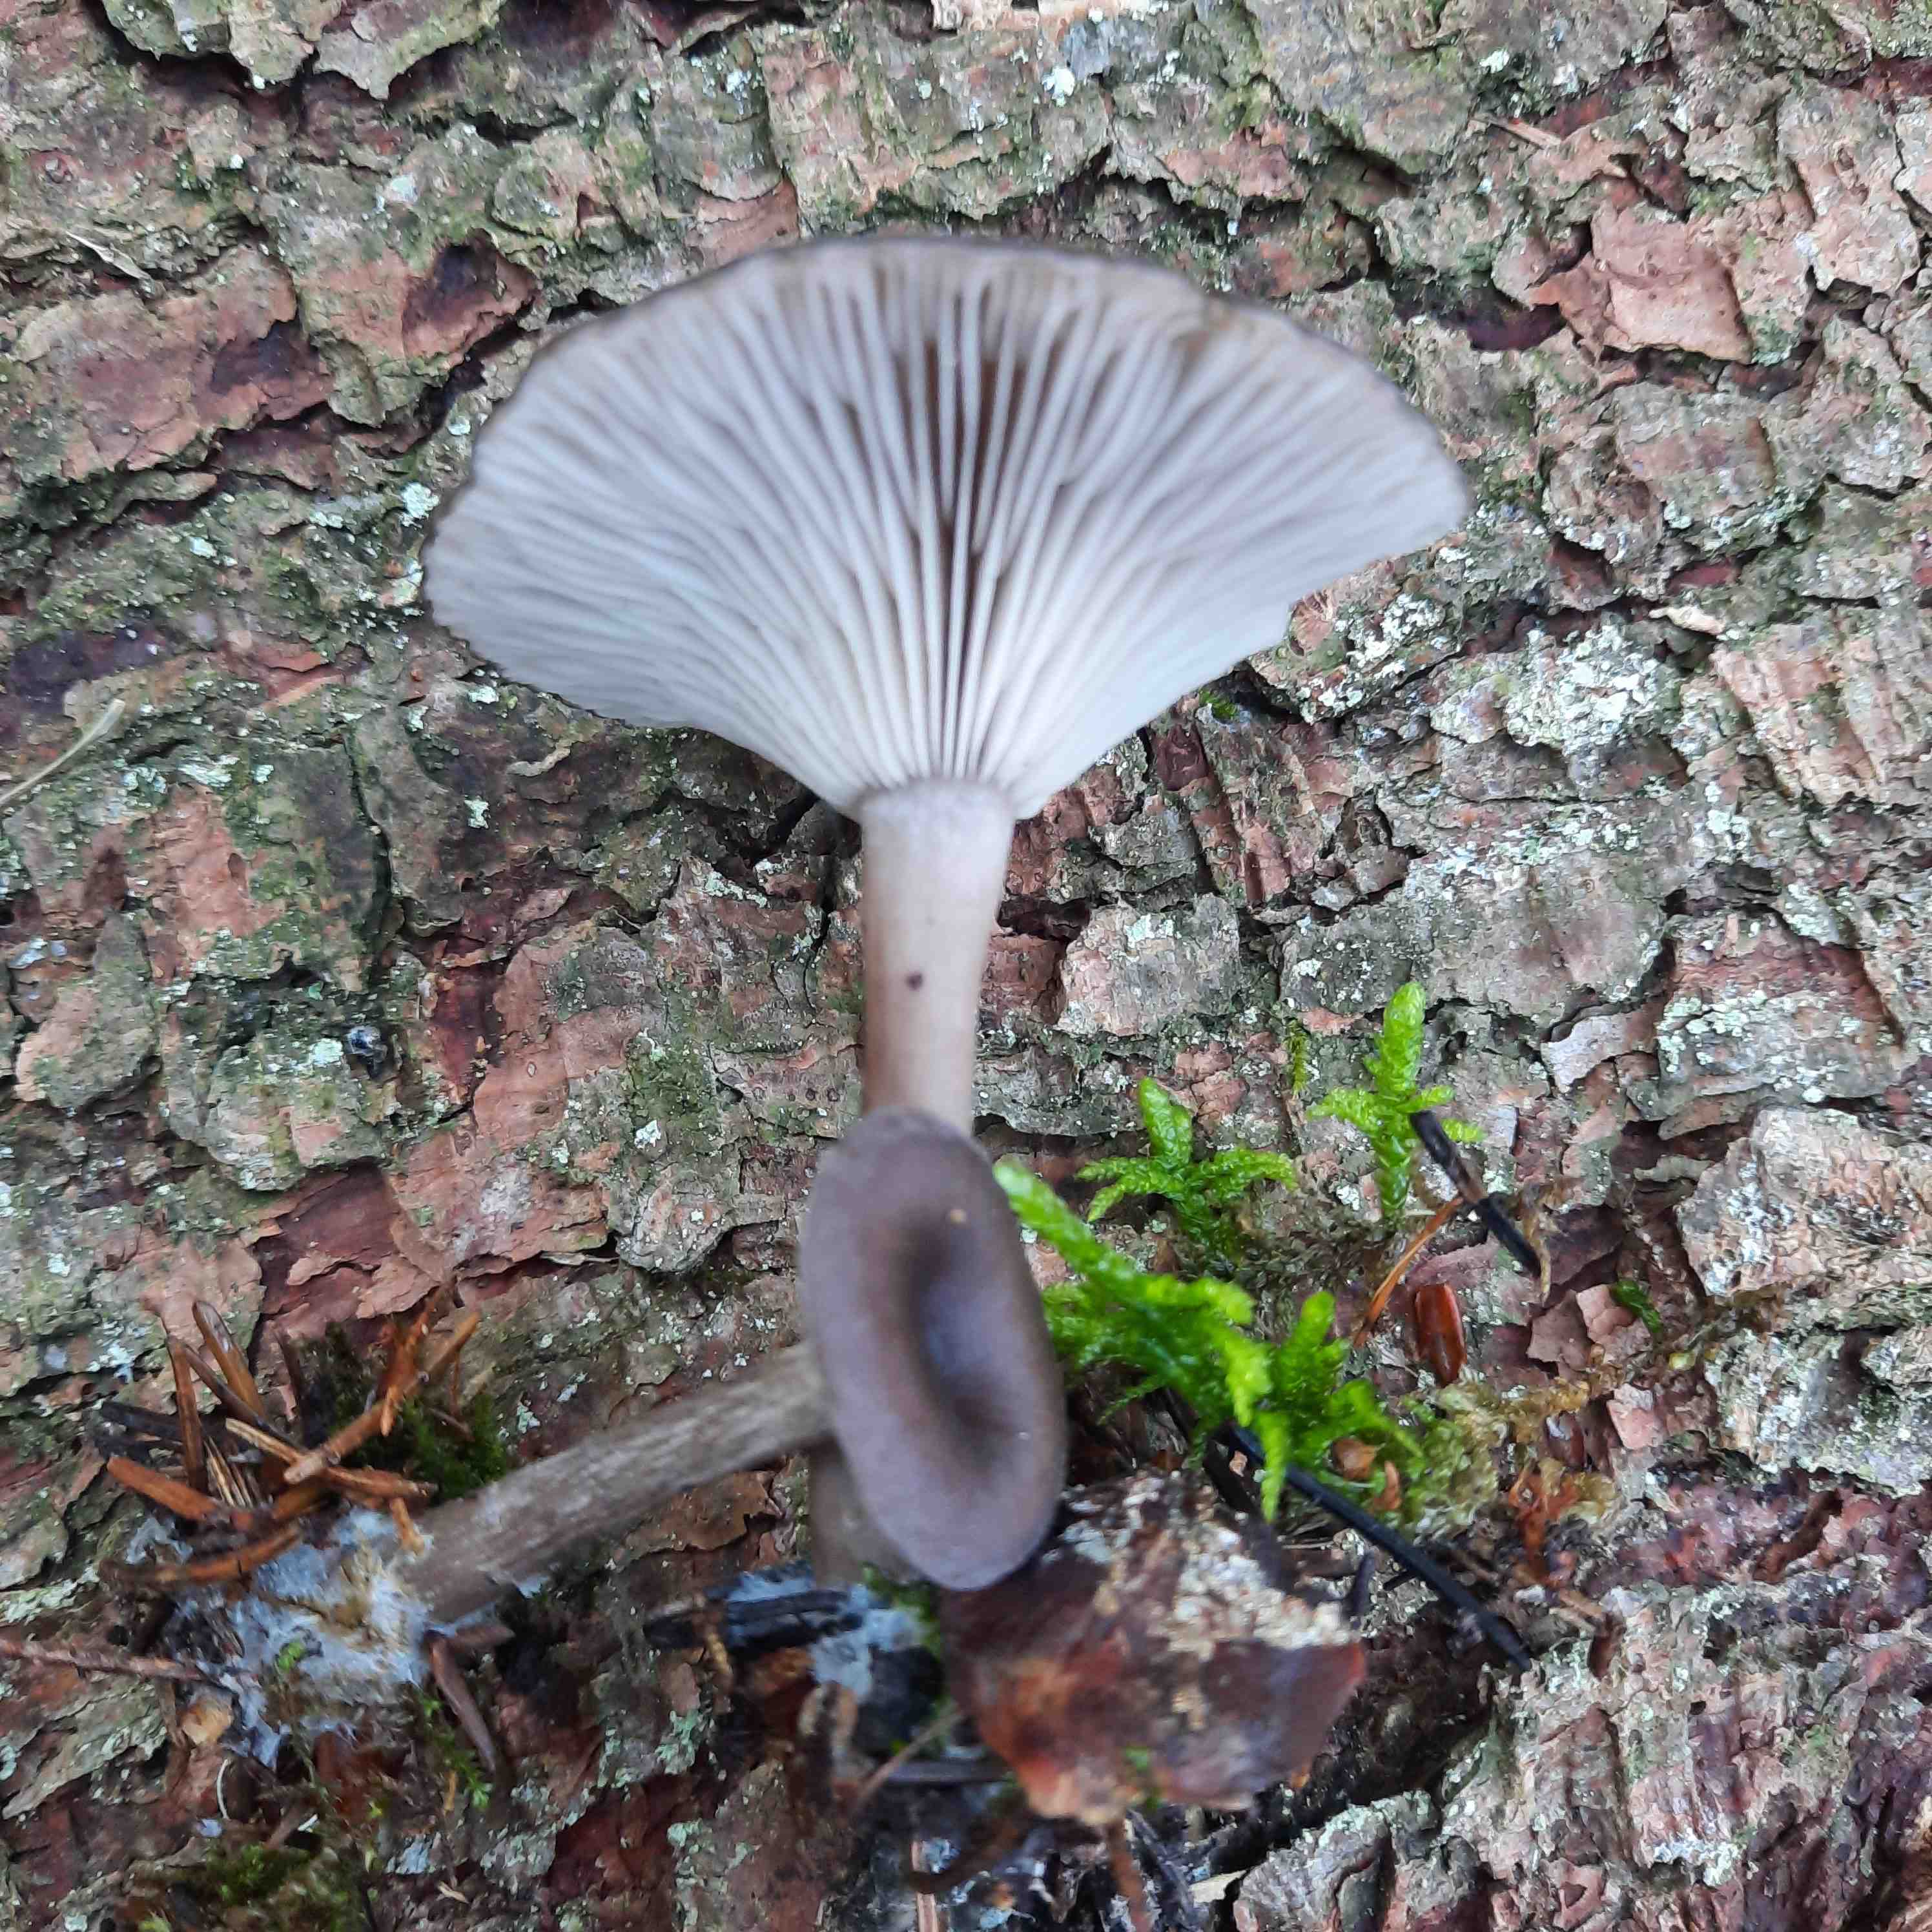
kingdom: Fungi
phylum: Basidiomycota
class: Agaricomycetes
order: Agaricales
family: Pseudoclitocybaceae
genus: Pseudoclitocybe
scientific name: Pseudoclitocybe cyathiformis
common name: almindelig bægertragthat
